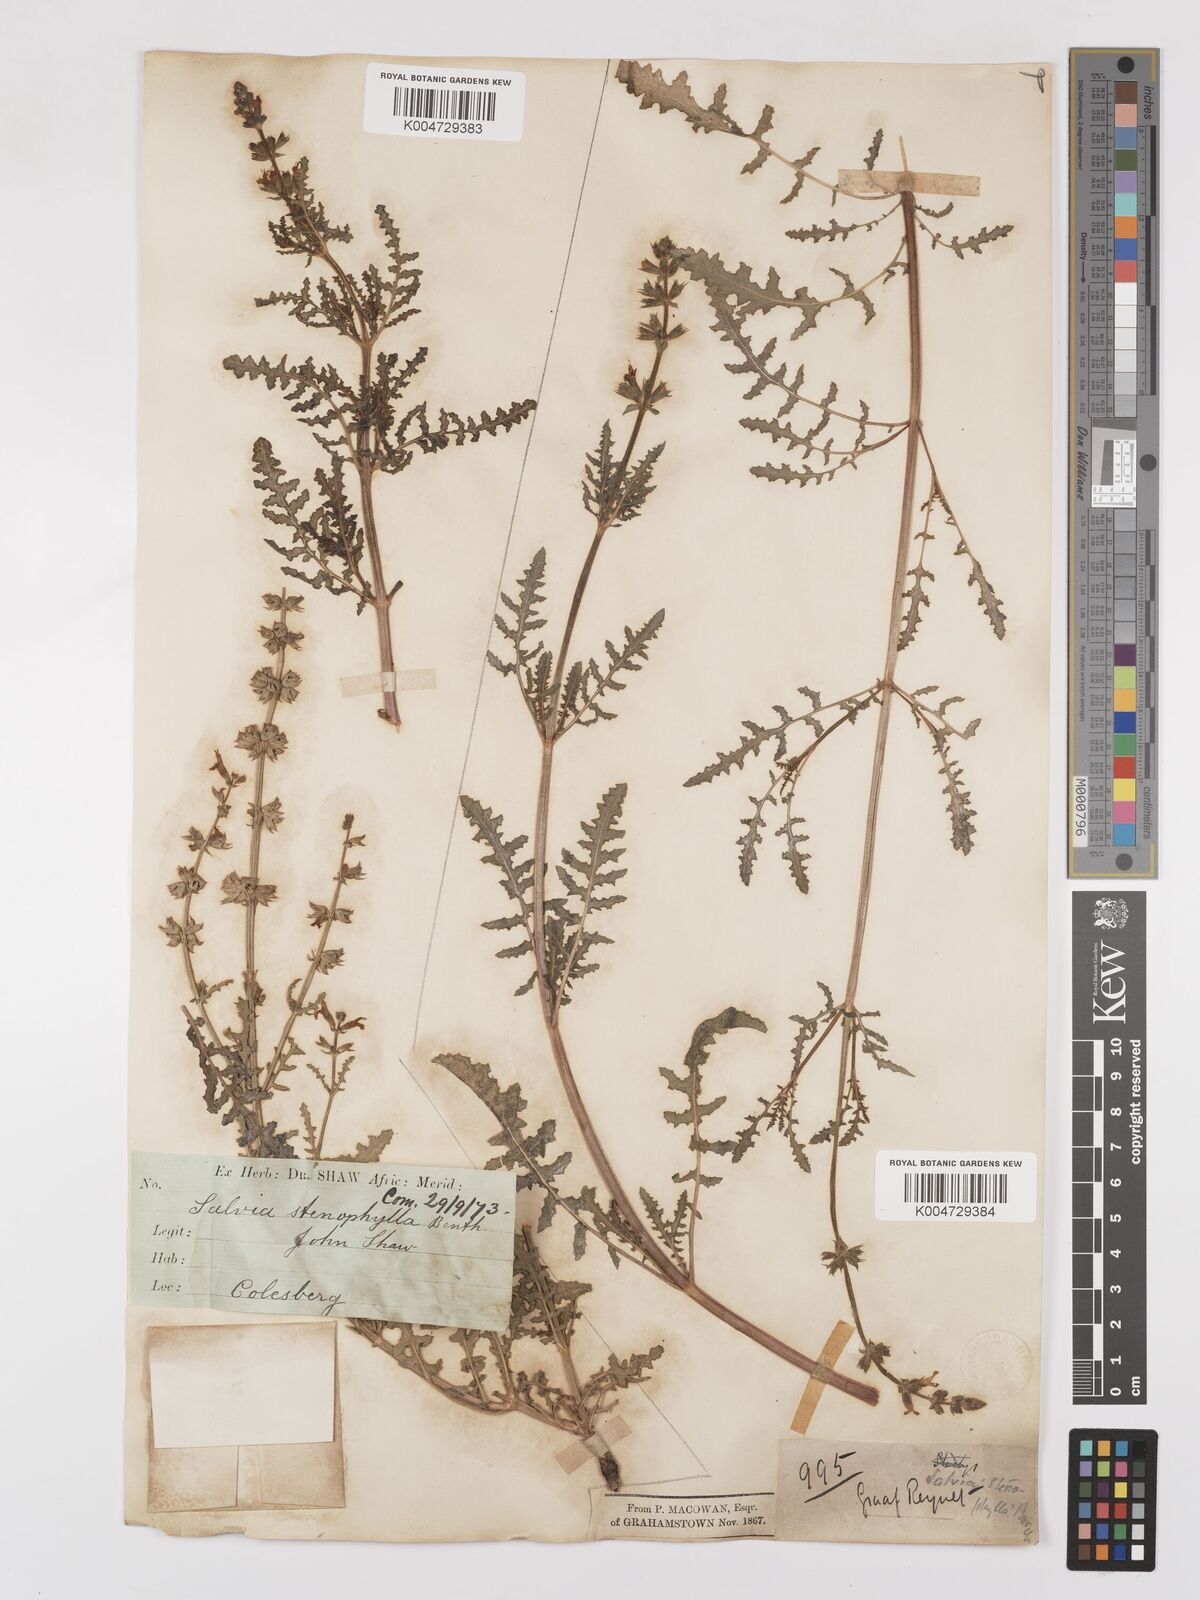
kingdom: Plantae
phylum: Tracheophyta
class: Magnoliopsida
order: Lamiales
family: Lamiaceae
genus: Salvia
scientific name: Salvia stenophylla
